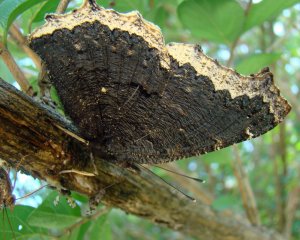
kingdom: Animalia
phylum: Arthropoda
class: Insecta
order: Lepidoptera
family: Nymphalidae
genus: Nymphalis
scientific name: Nymphalis antiopa
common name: Mourning Cloak
